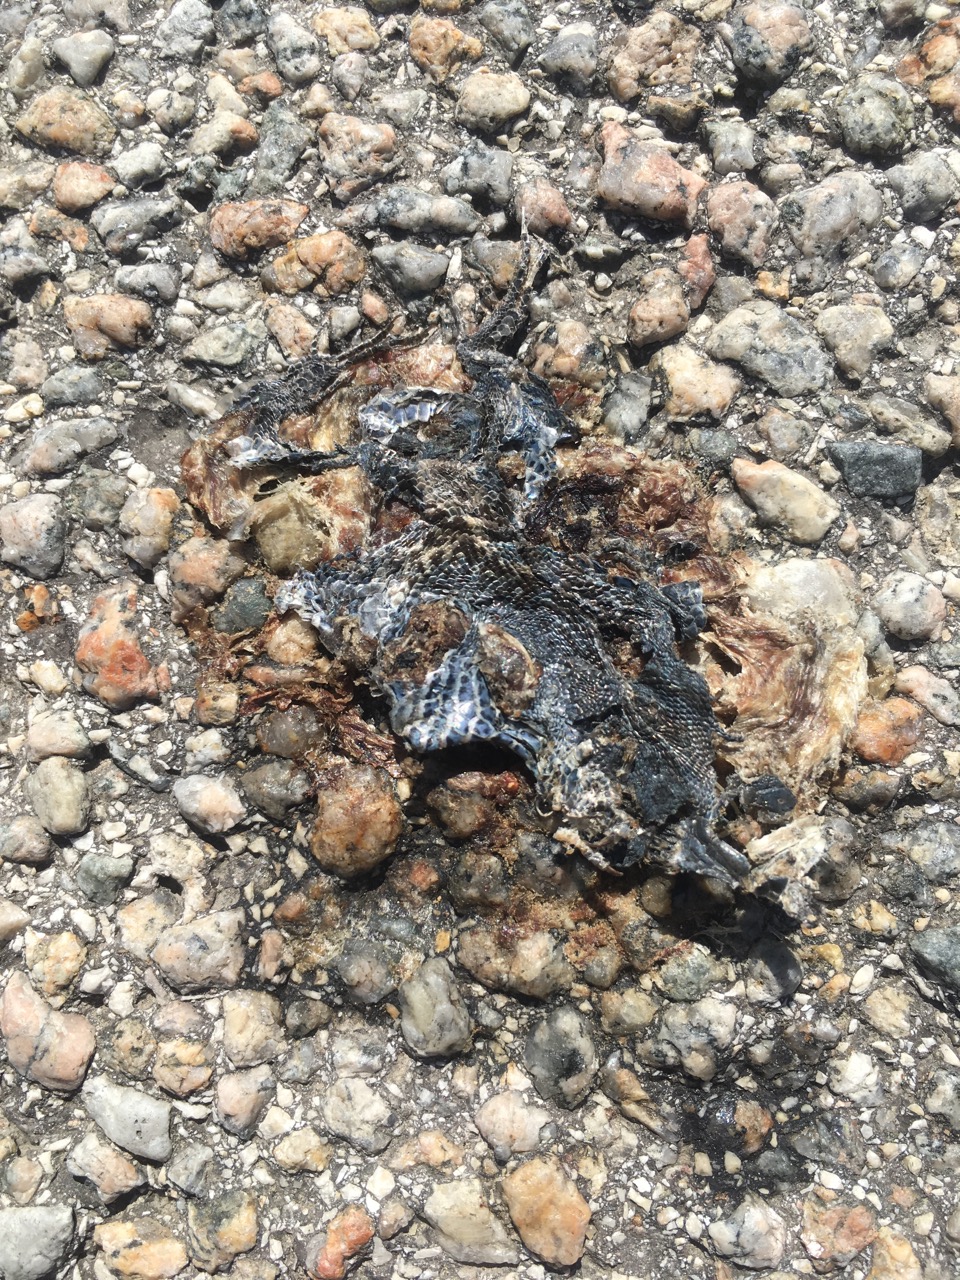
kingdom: Animalia
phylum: Chordata
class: Squamata
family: Lacertidae
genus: Lacerta
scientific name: Lacerta agilis
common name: Sand lizard
